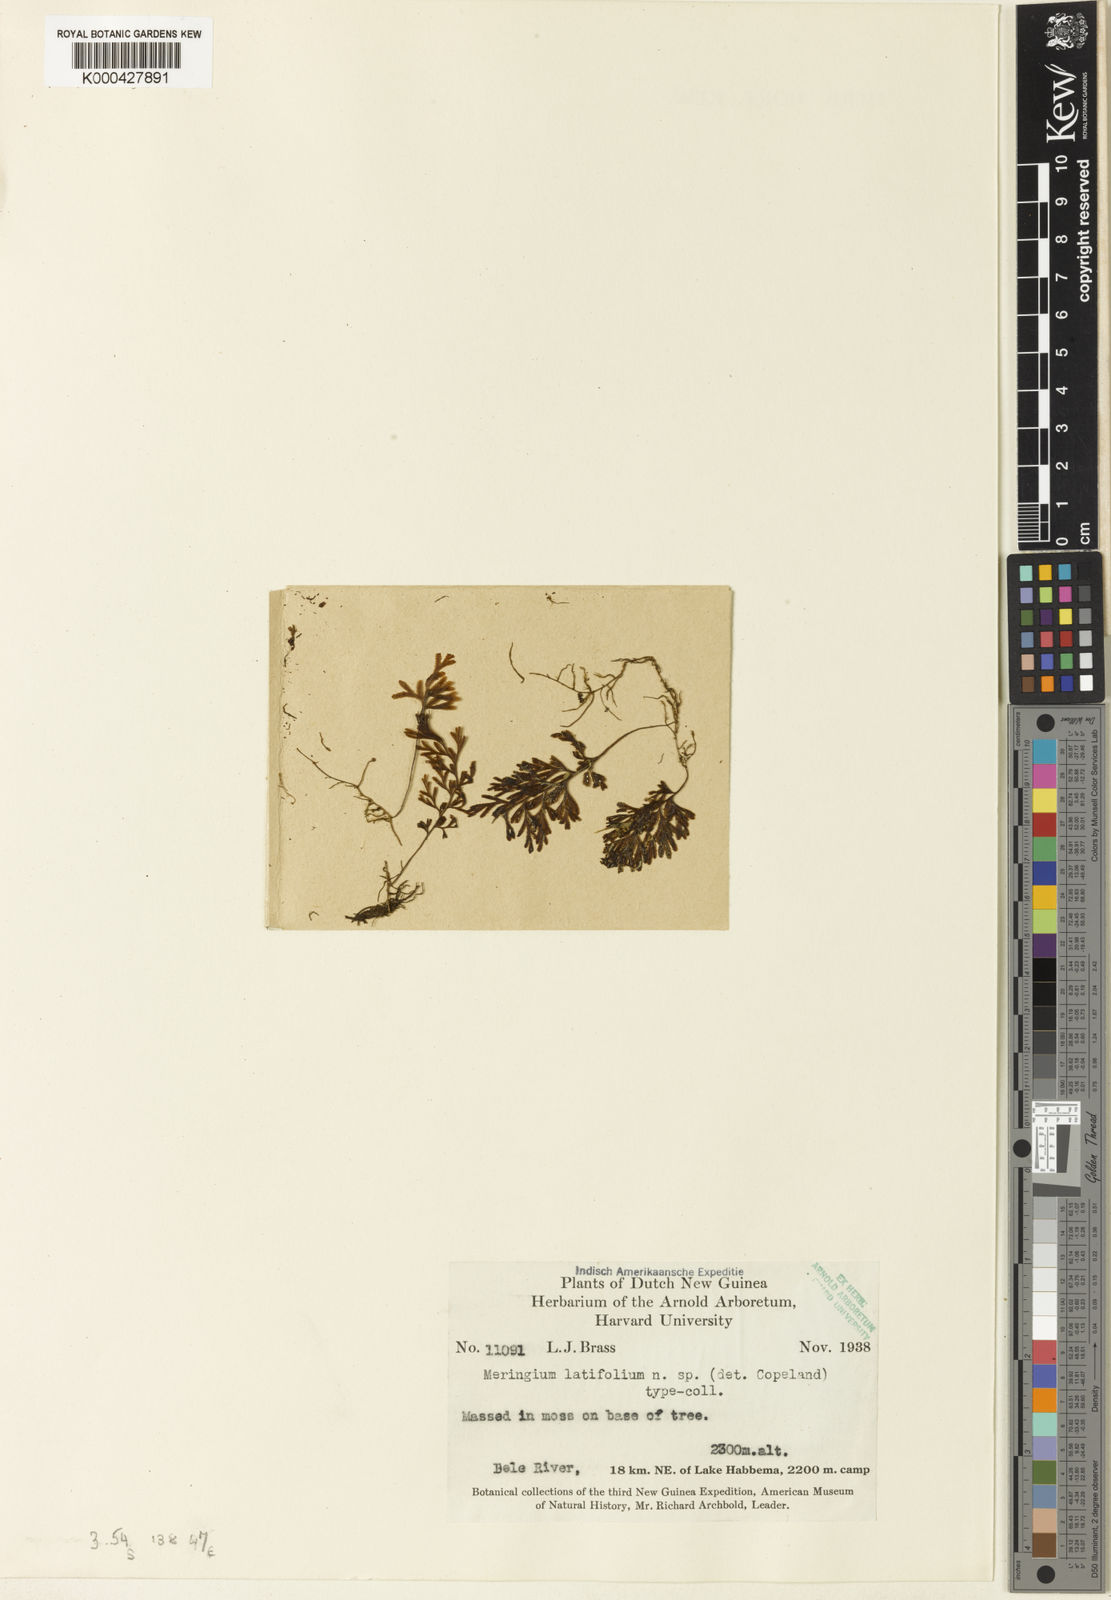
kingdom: Plantae
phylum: Tracheophyta
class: Polypodiopsida
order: Hymenophyllales
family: Hymenophyllaceae
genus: Hymenophyllum
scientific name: Hymenophyllum holochilum
